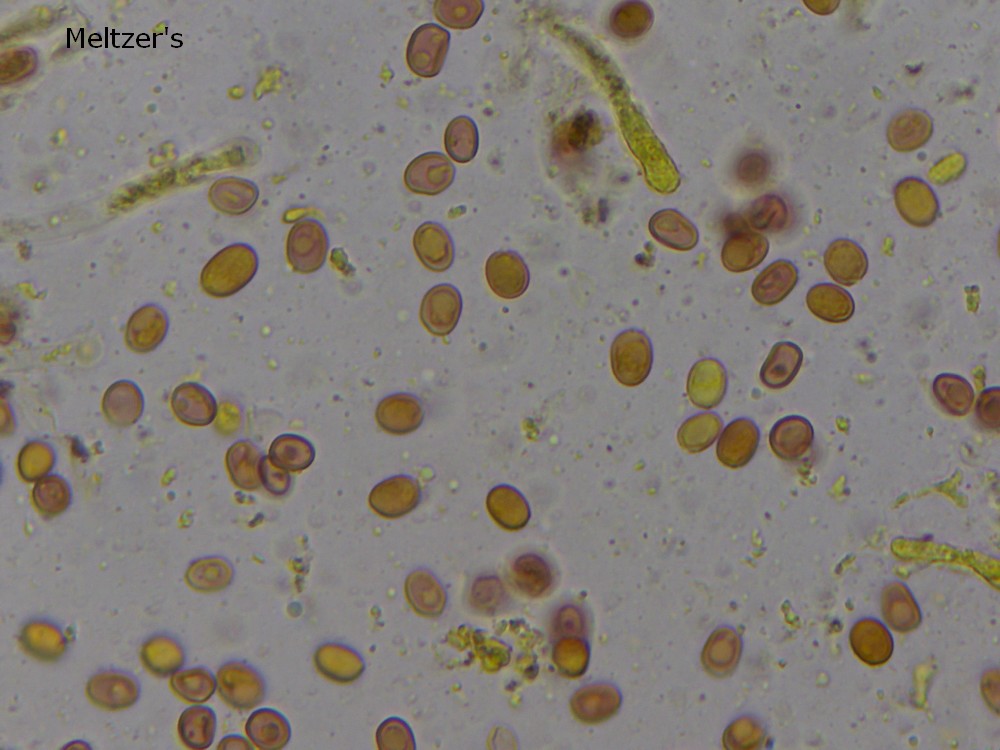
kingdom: Fungi
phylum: Basidiomycota
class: Agaricomycetes
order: Boletales
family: Coniophoraceae
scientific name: Coniophoraceae
